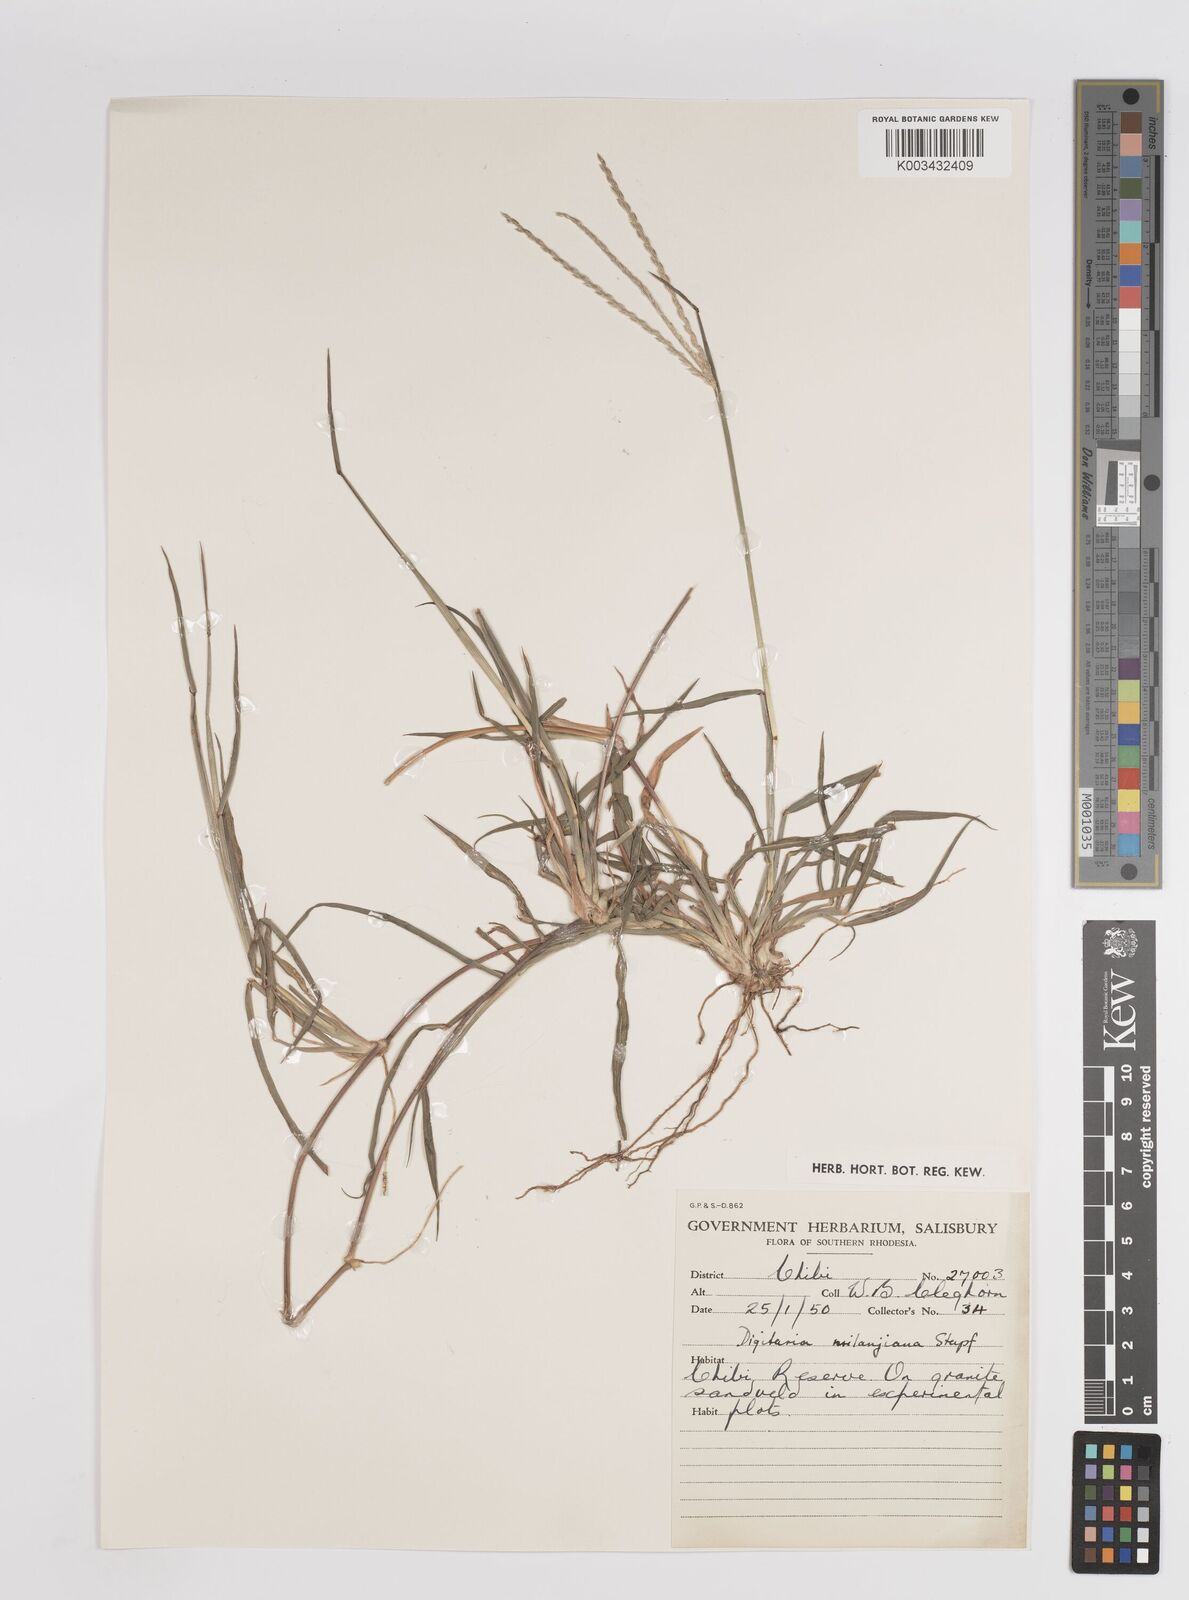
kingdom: Plantae
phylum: Tracheophyta
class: Liliopsida
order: Poales
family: Poaceae
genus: Digitaria
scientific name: Digitaria eriantha
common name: Digitgrass
